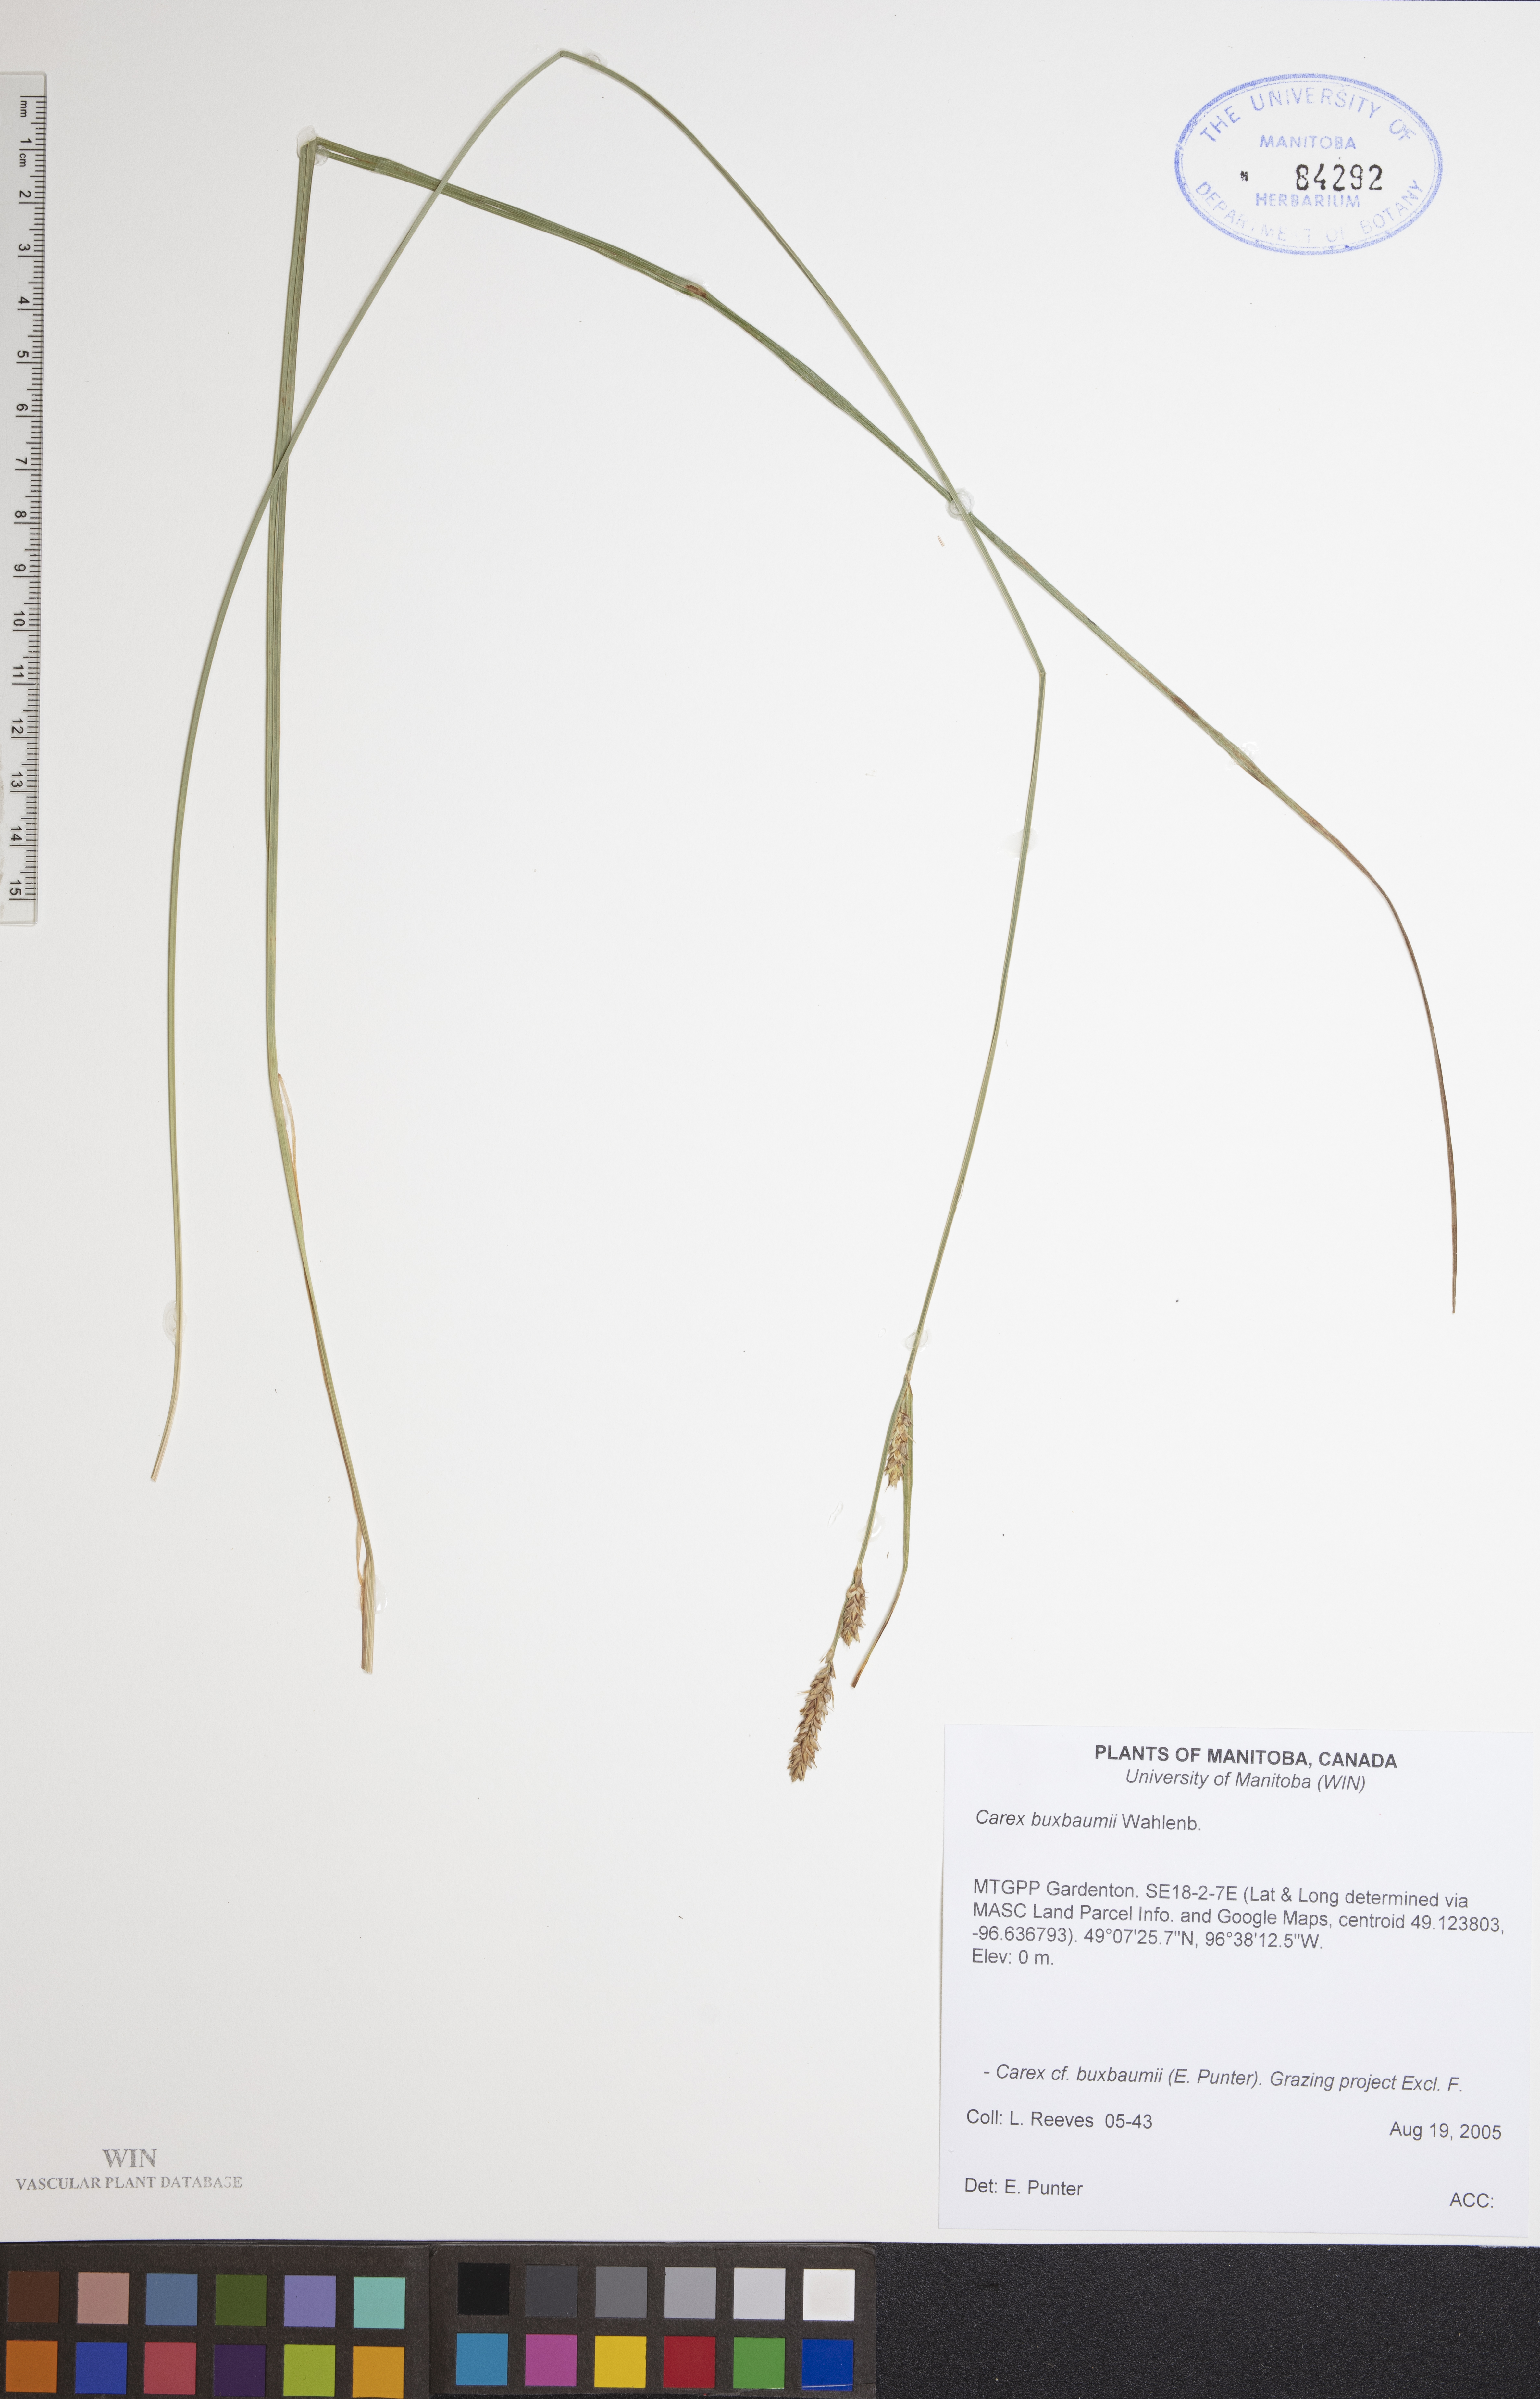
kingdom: Plantae
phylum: Tracheophyta
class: Liliopsida
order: Poales
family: Cyperaceae
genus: Carex
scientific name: Carex buxbaumii
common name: Club sedge
